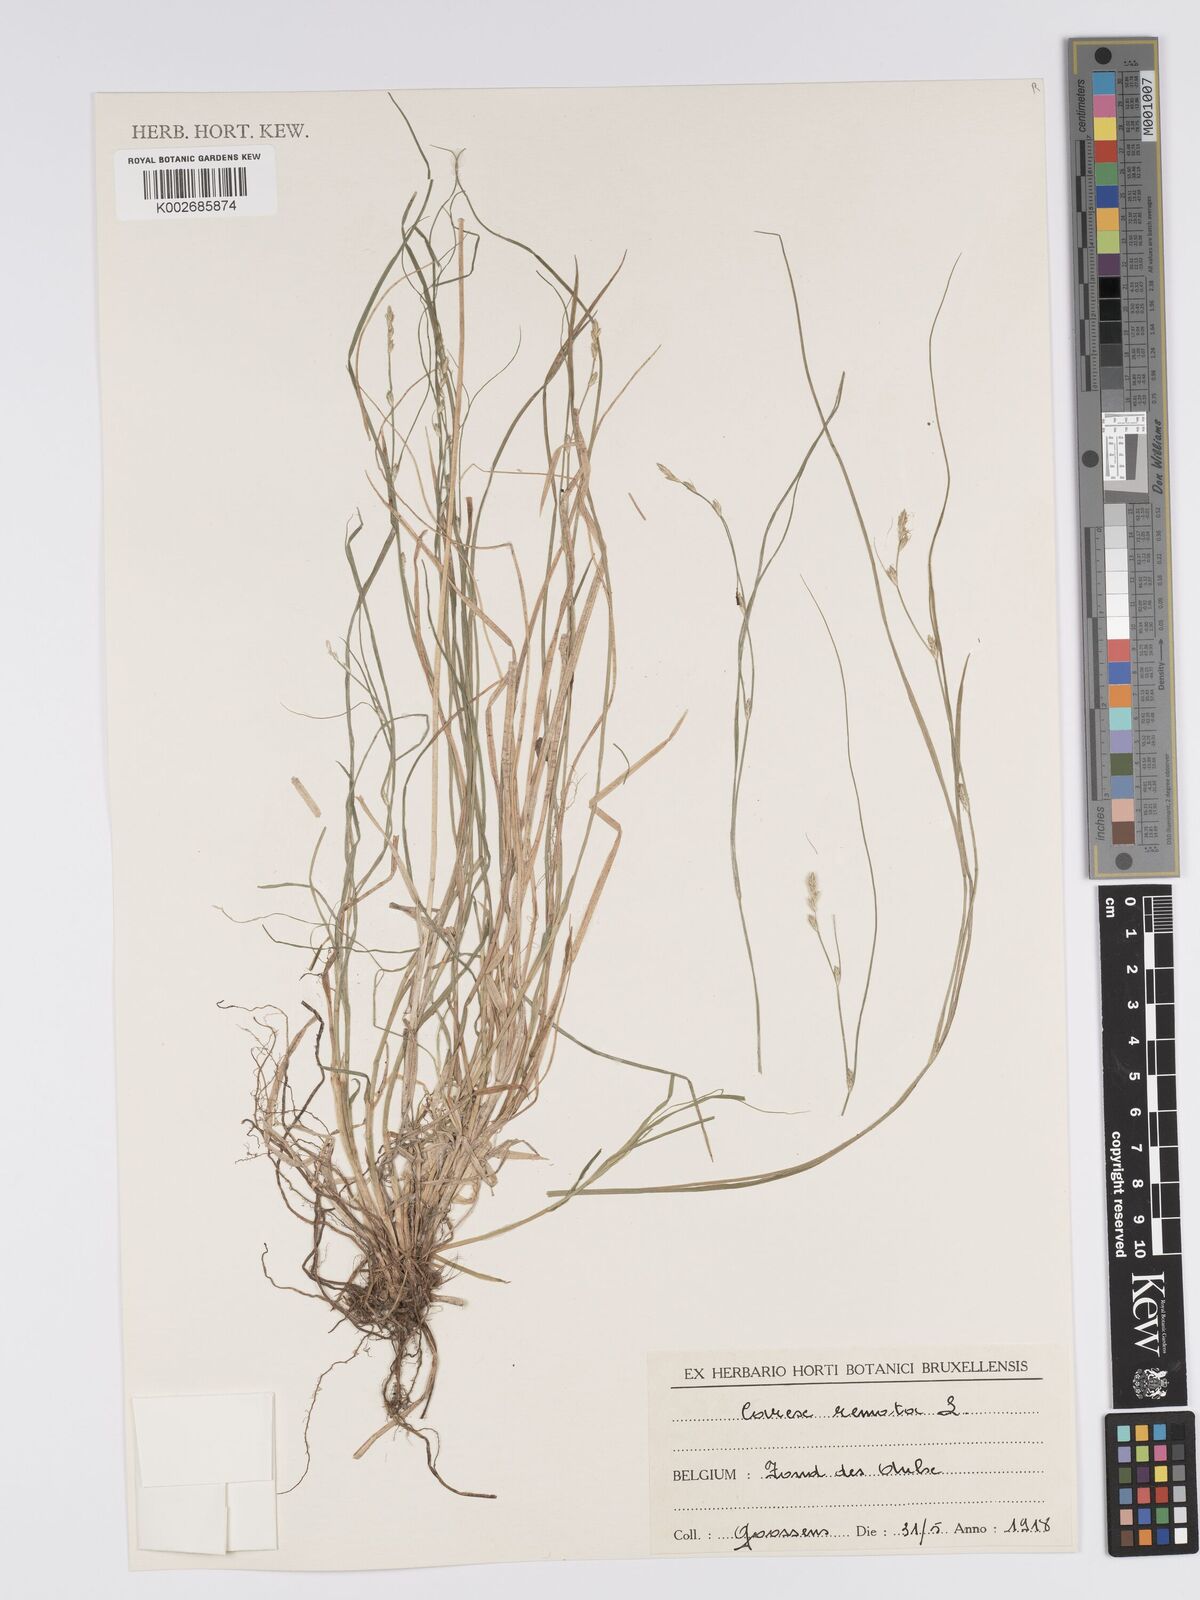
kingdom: Plantae
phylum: Tracheophyta
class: Liliopsida
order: Poales
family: Cyperaceae
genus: Carex
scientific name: Carex remota
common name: Remote sedge
